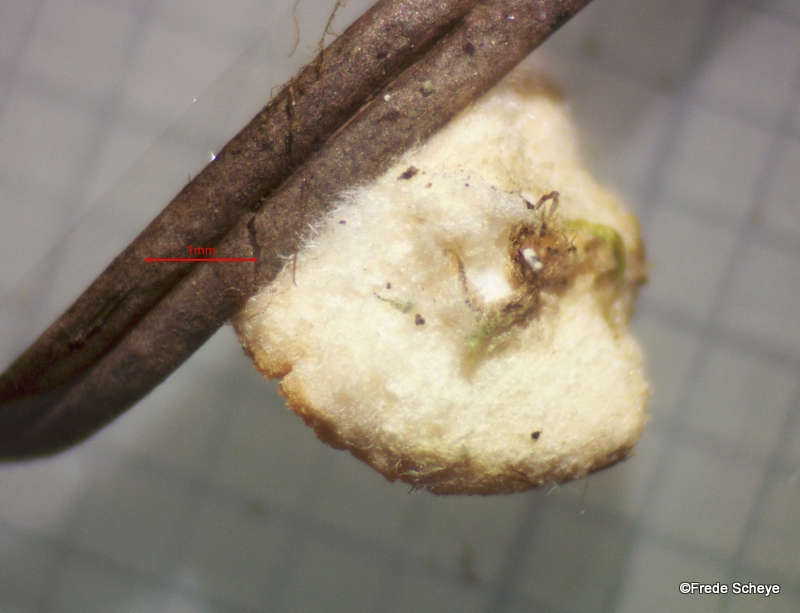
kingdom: Fungi
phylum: Ascomycota
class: Pezizomycetes
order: Pezizales
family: Sarcoscyphaceae
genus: Pithya
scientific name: Pithya vulgaris
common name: stor dukatbæger
